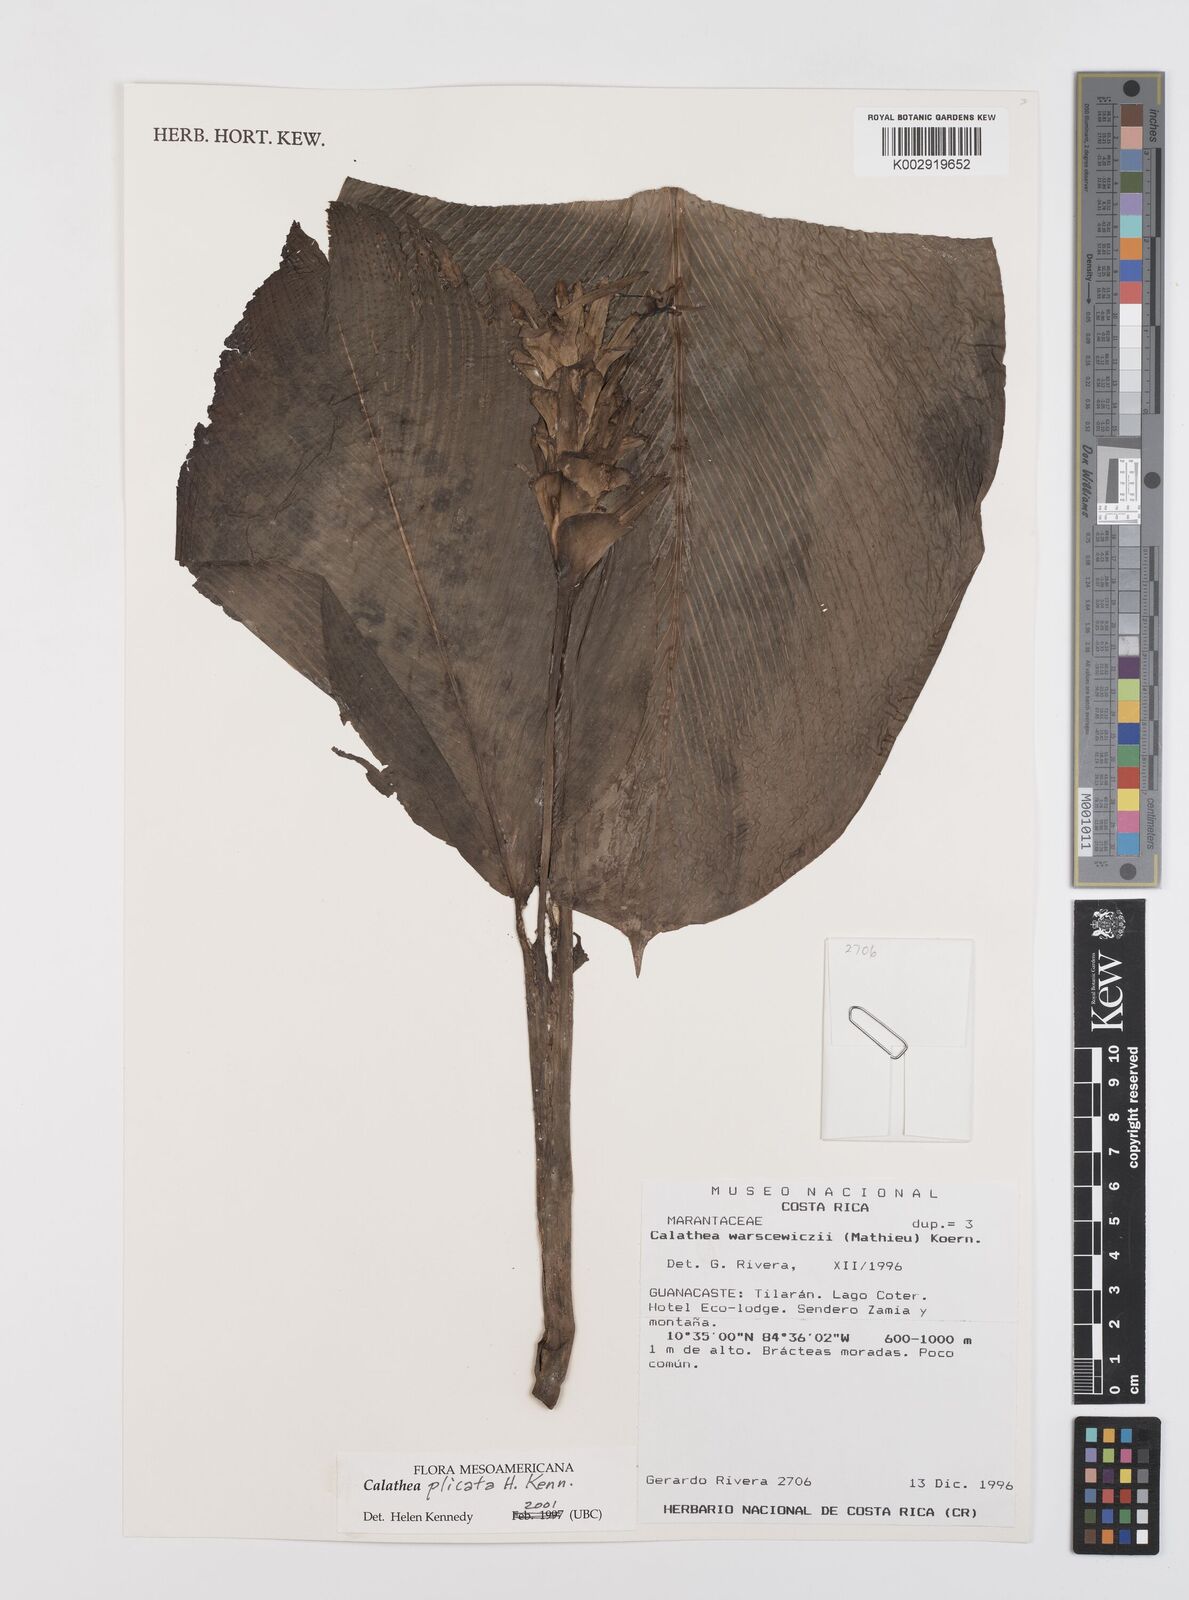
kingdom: Plantae
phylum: Tracheophyta
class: Liliopsida
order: Zingiberales
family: Marantaceae
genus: Goeppertia
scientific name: Goeppertia plicata
